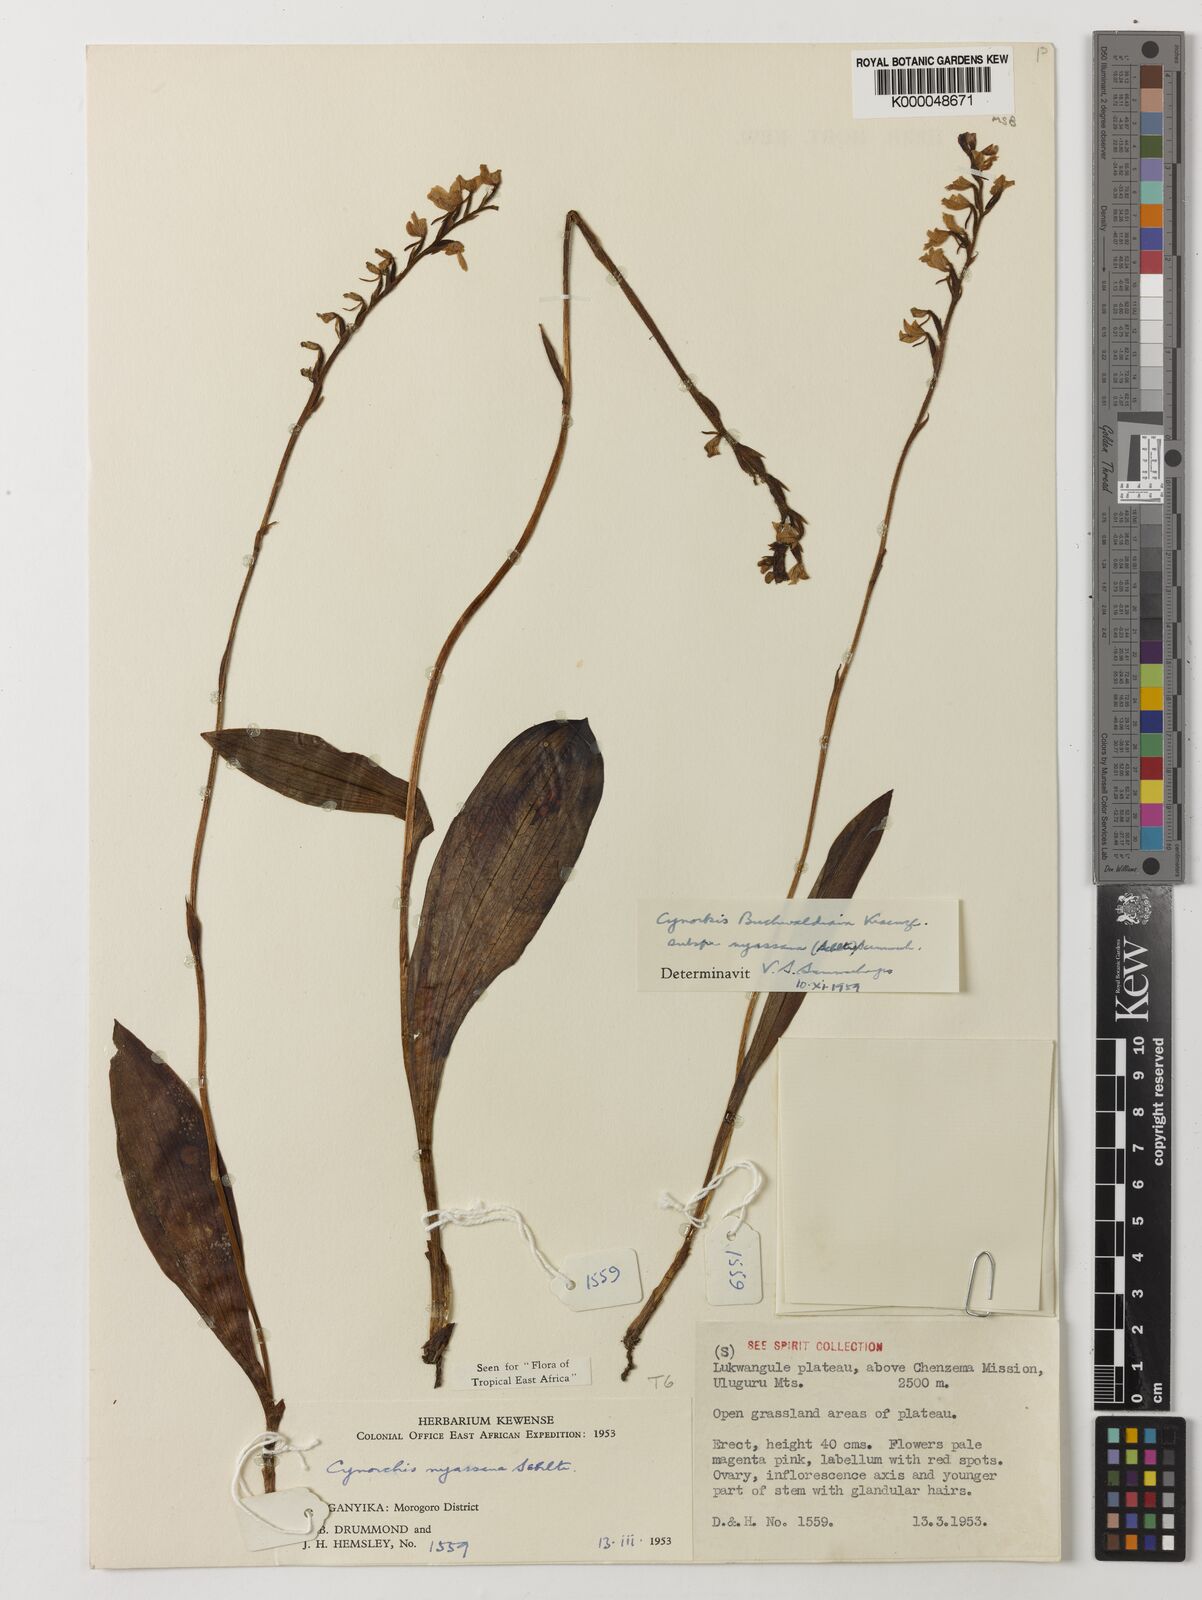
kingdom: Plantae
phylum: Tracheophyta
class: Liliopsida
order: Asparagales
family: Orchidaceae
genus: Cynorkis
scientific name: Cynorkis buchananii
